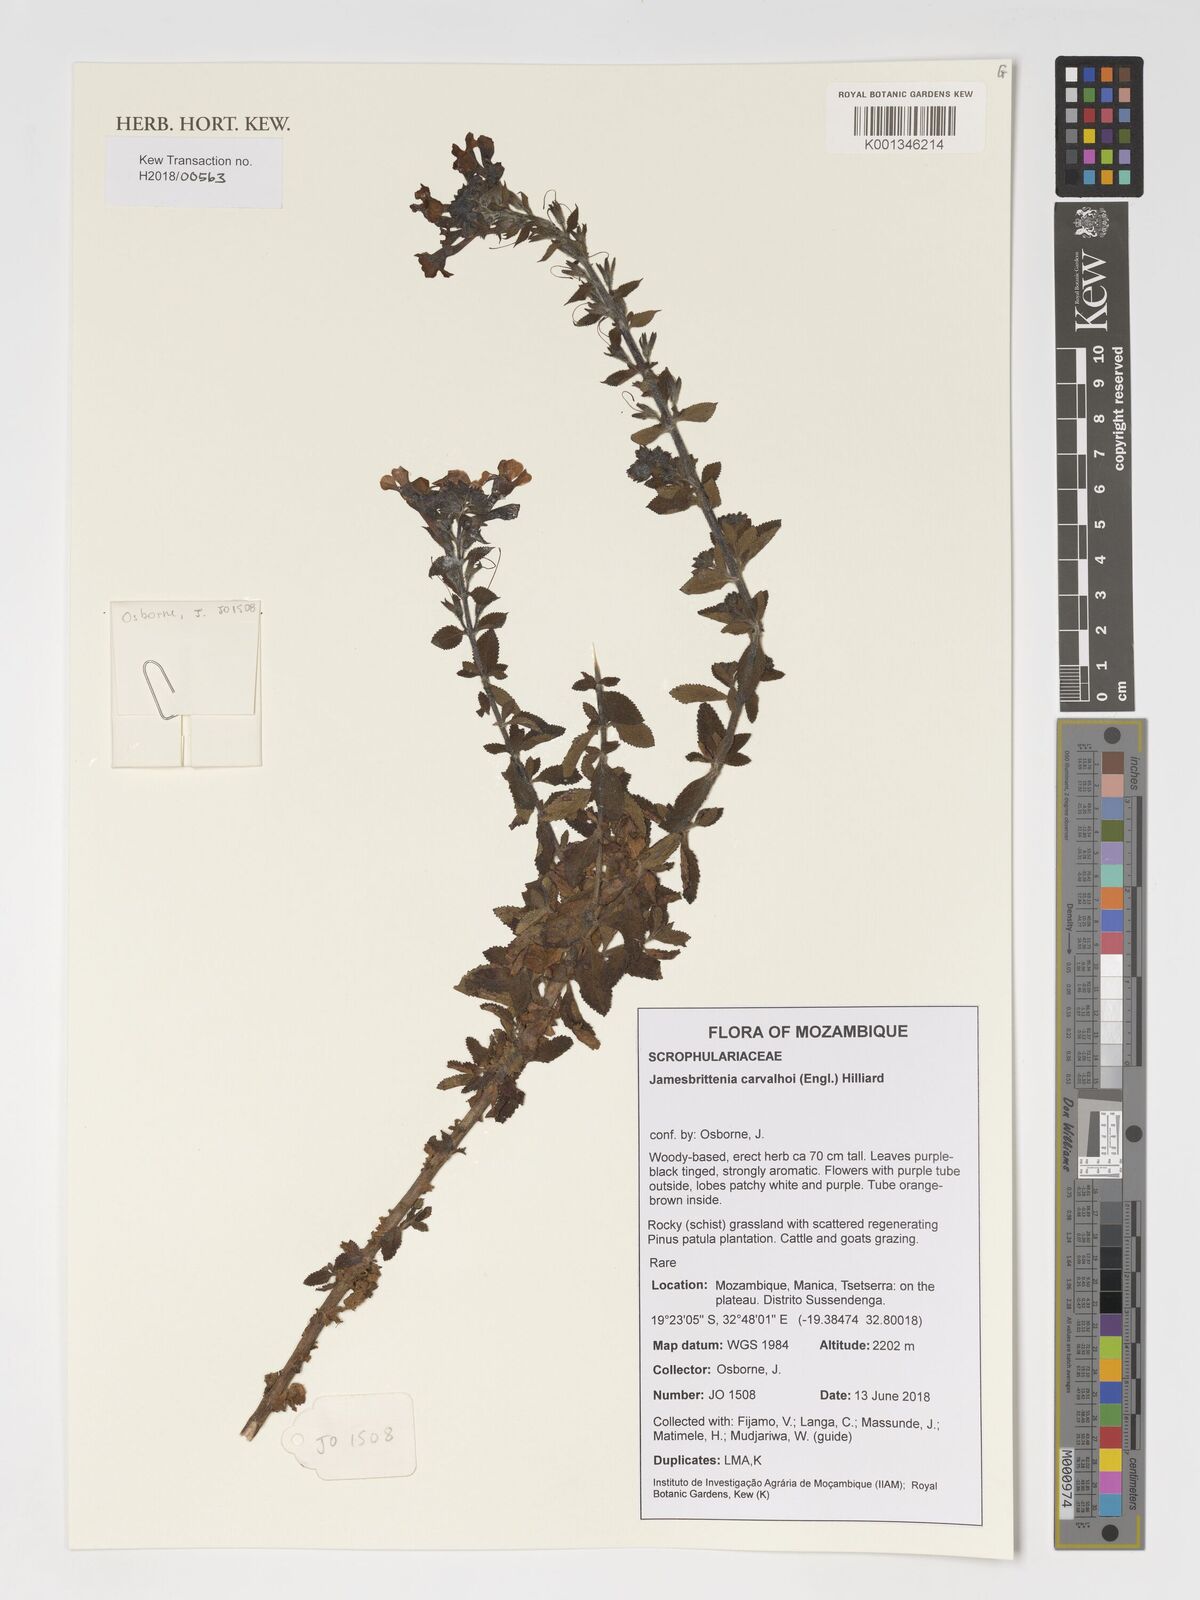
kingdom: Plantae
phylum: Tracheophyta
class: Magnoliopsida
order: Lamiales
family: Scrophulariaceae
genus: Jamesbrittenia
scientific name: Jamesbrittenia carvalhoi
